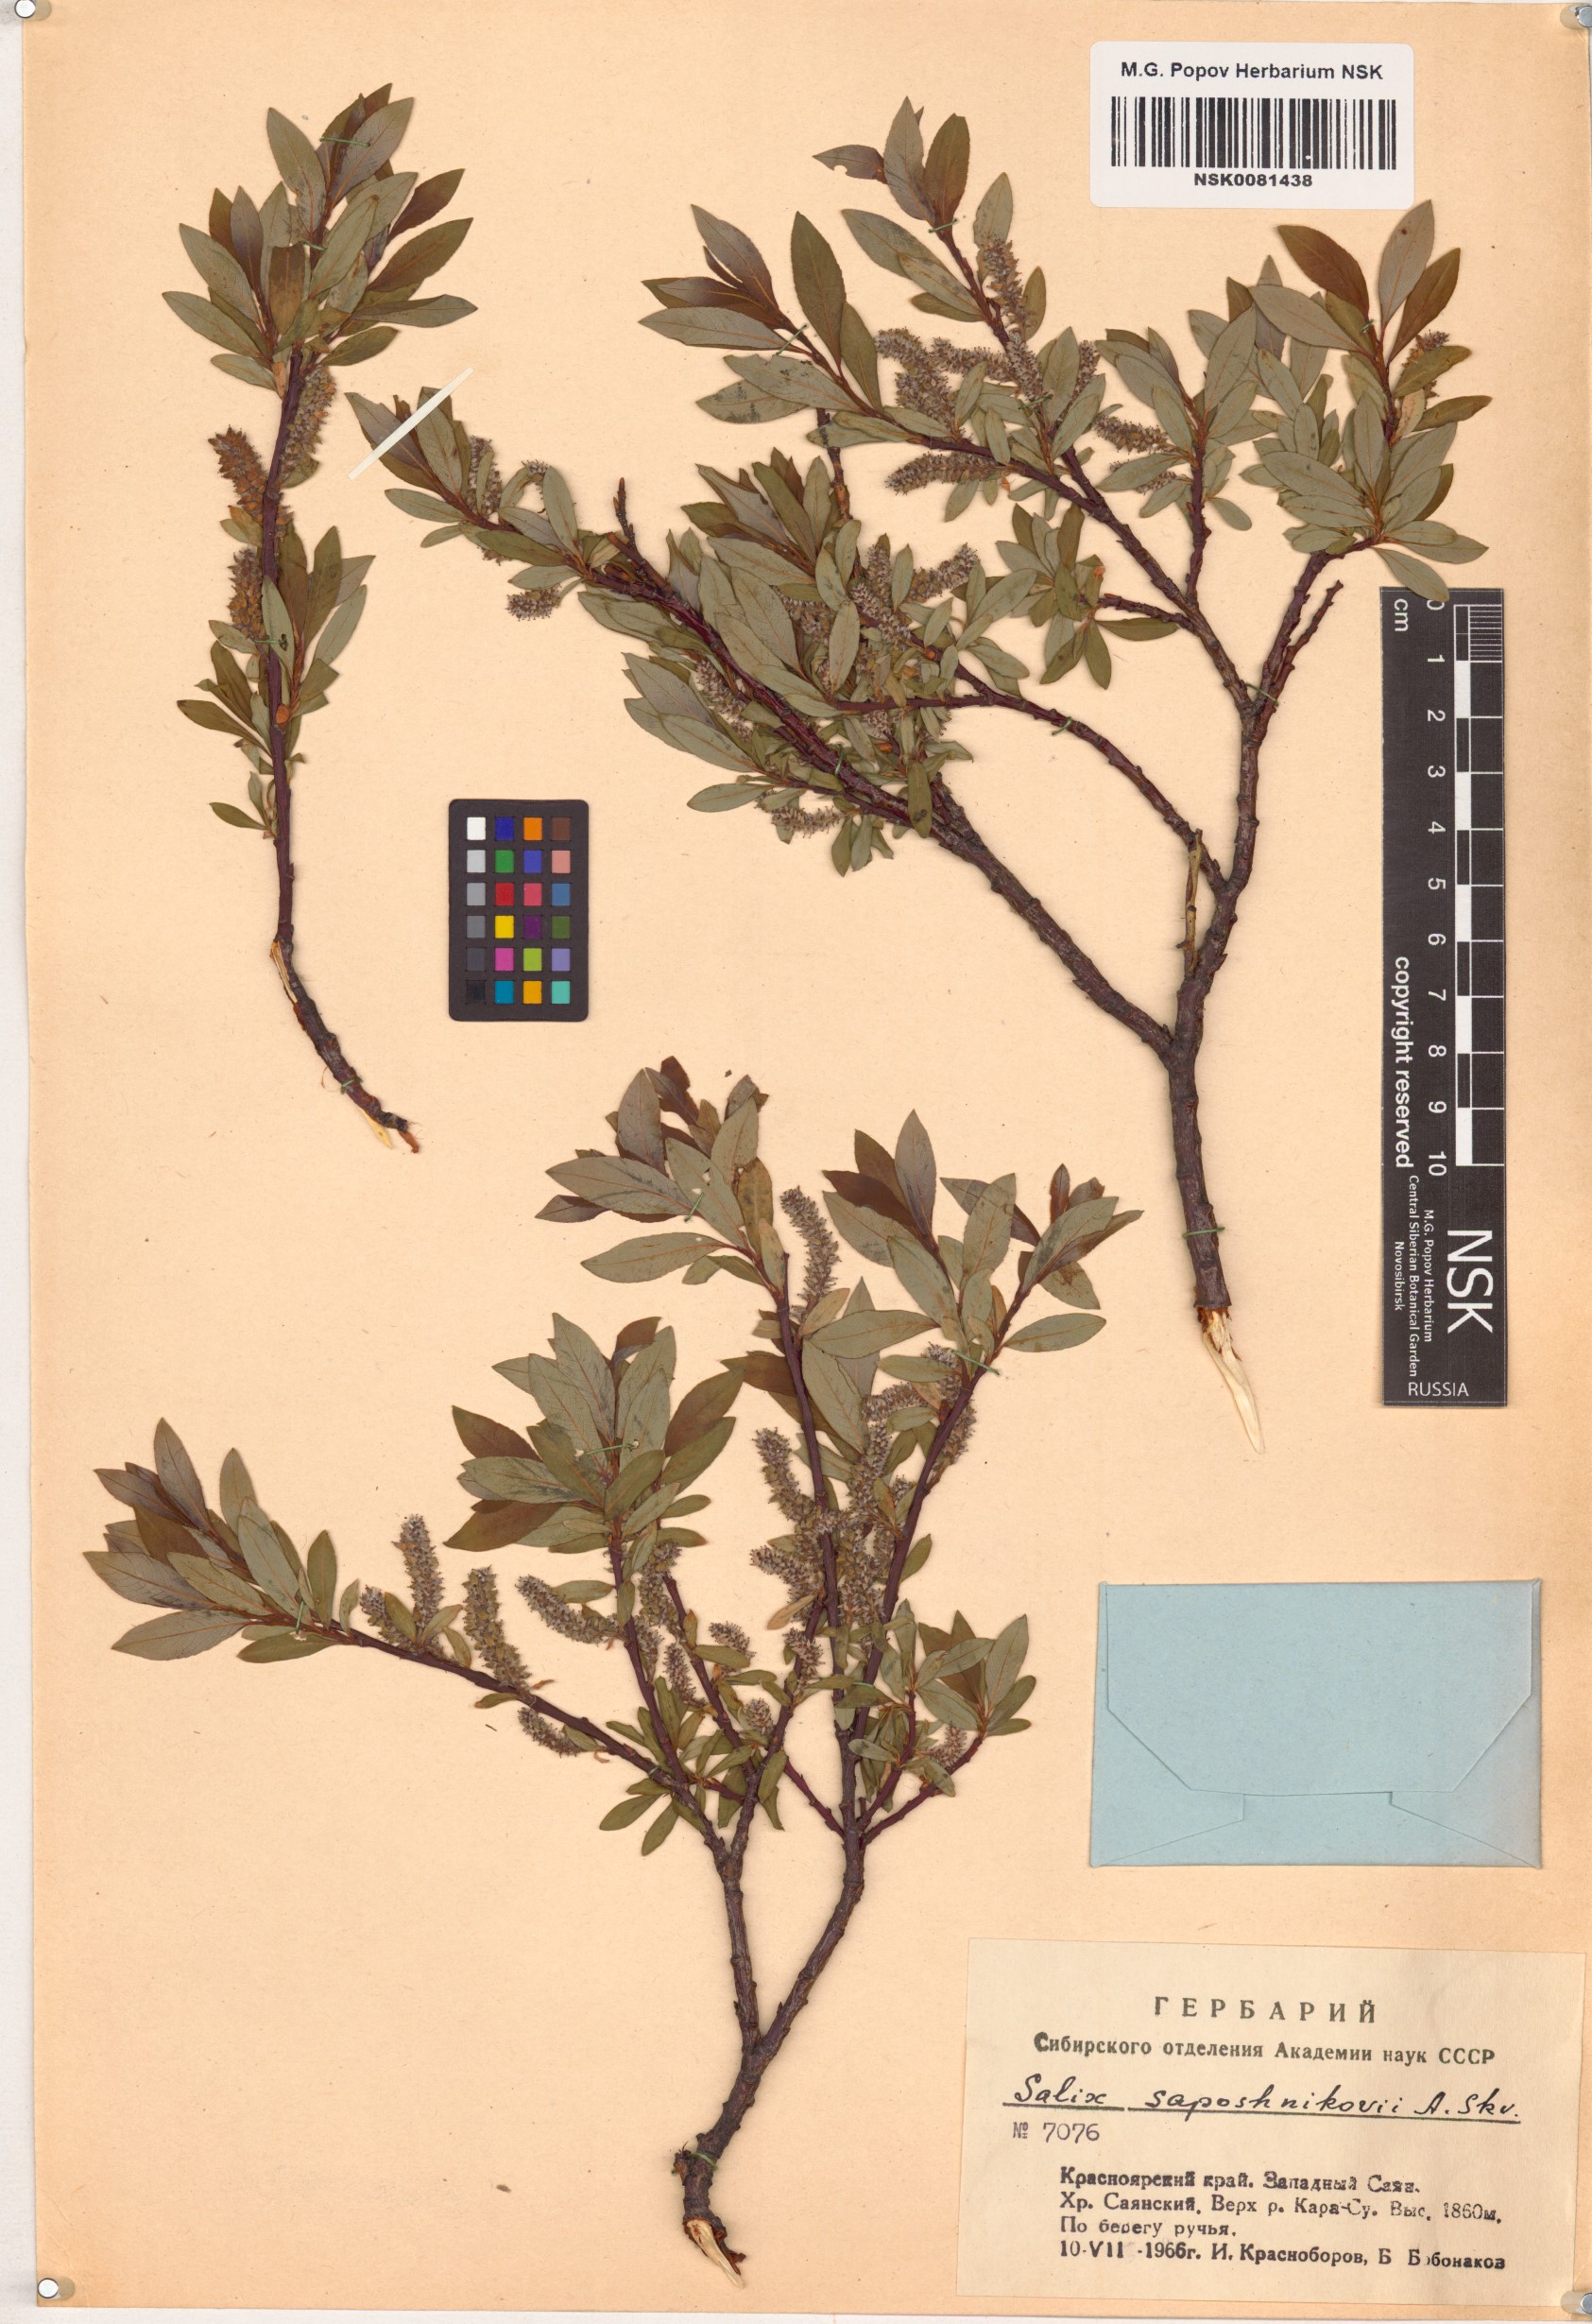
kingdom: Plantae
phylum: Tracheophyta
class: Magnoliopsida
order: Malpighiales
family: Salicaceae
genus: Salix
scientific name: Salix saposhnikovii
